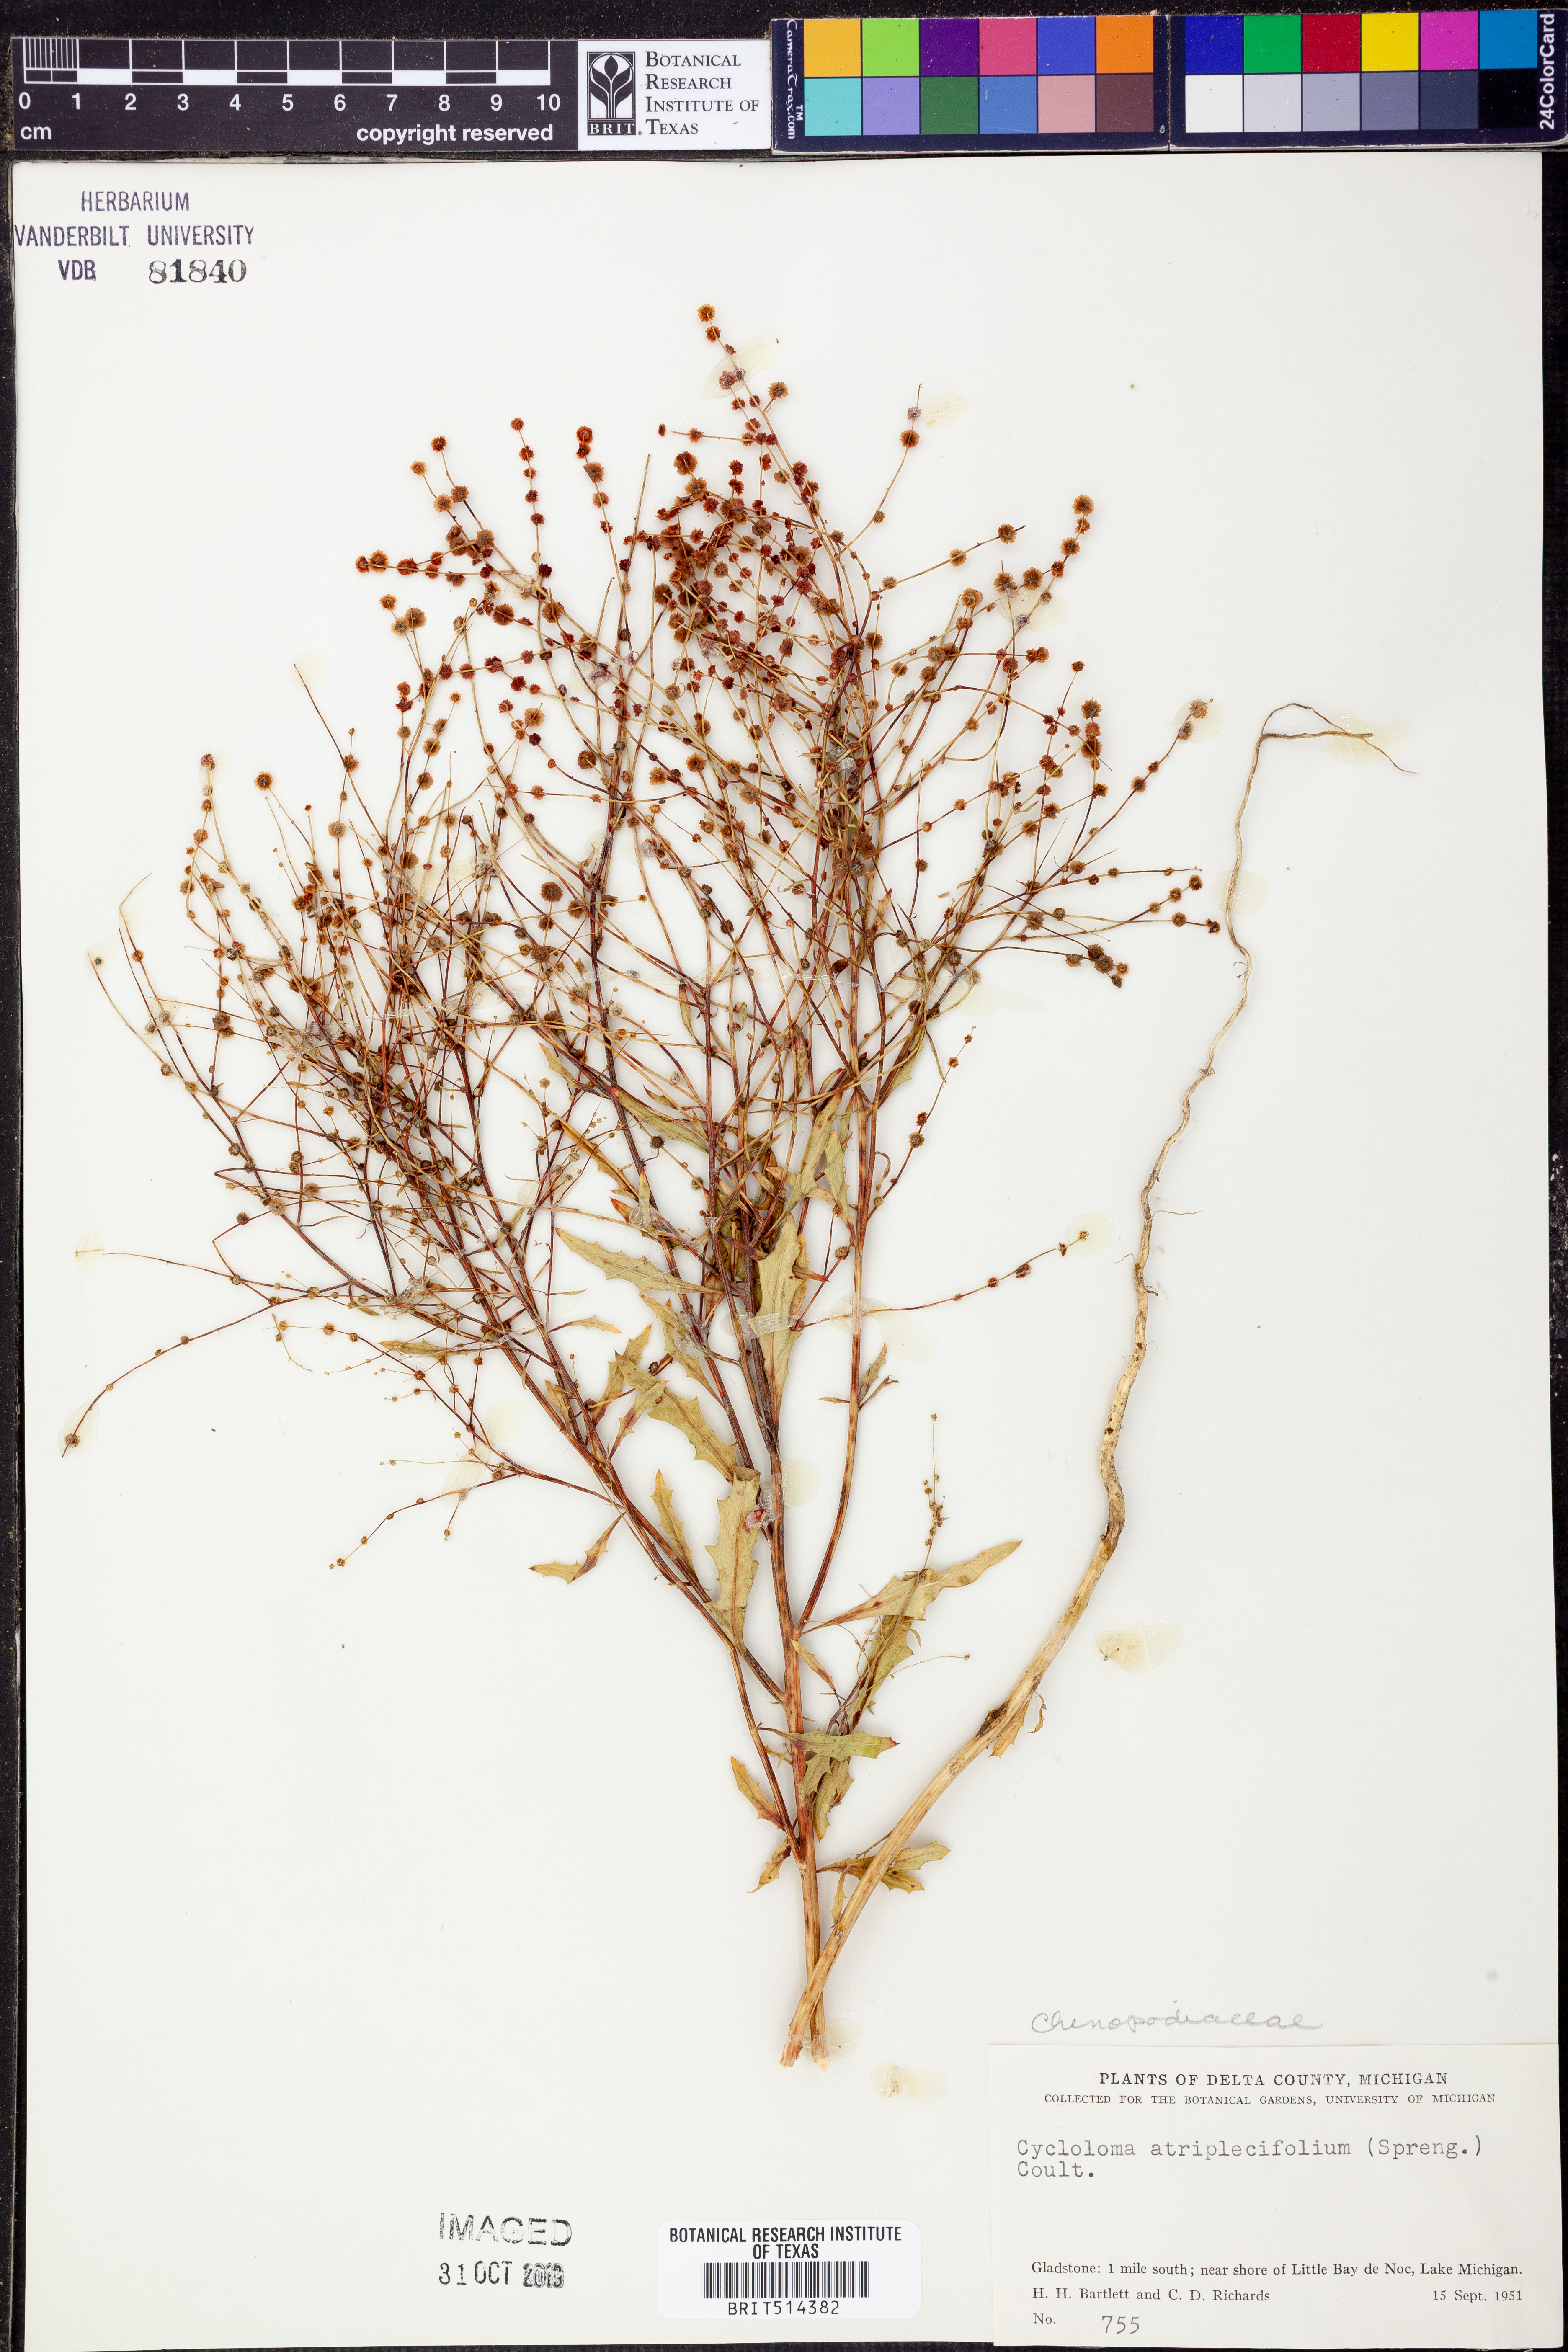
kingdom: Plantae
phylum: Tracheophyta
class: Magnoliopsida
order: Caryophyllales
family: Amaranthaceae
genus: Dysphania
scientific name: Dysphania atriplicifolia
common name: Plains tumbleweed
